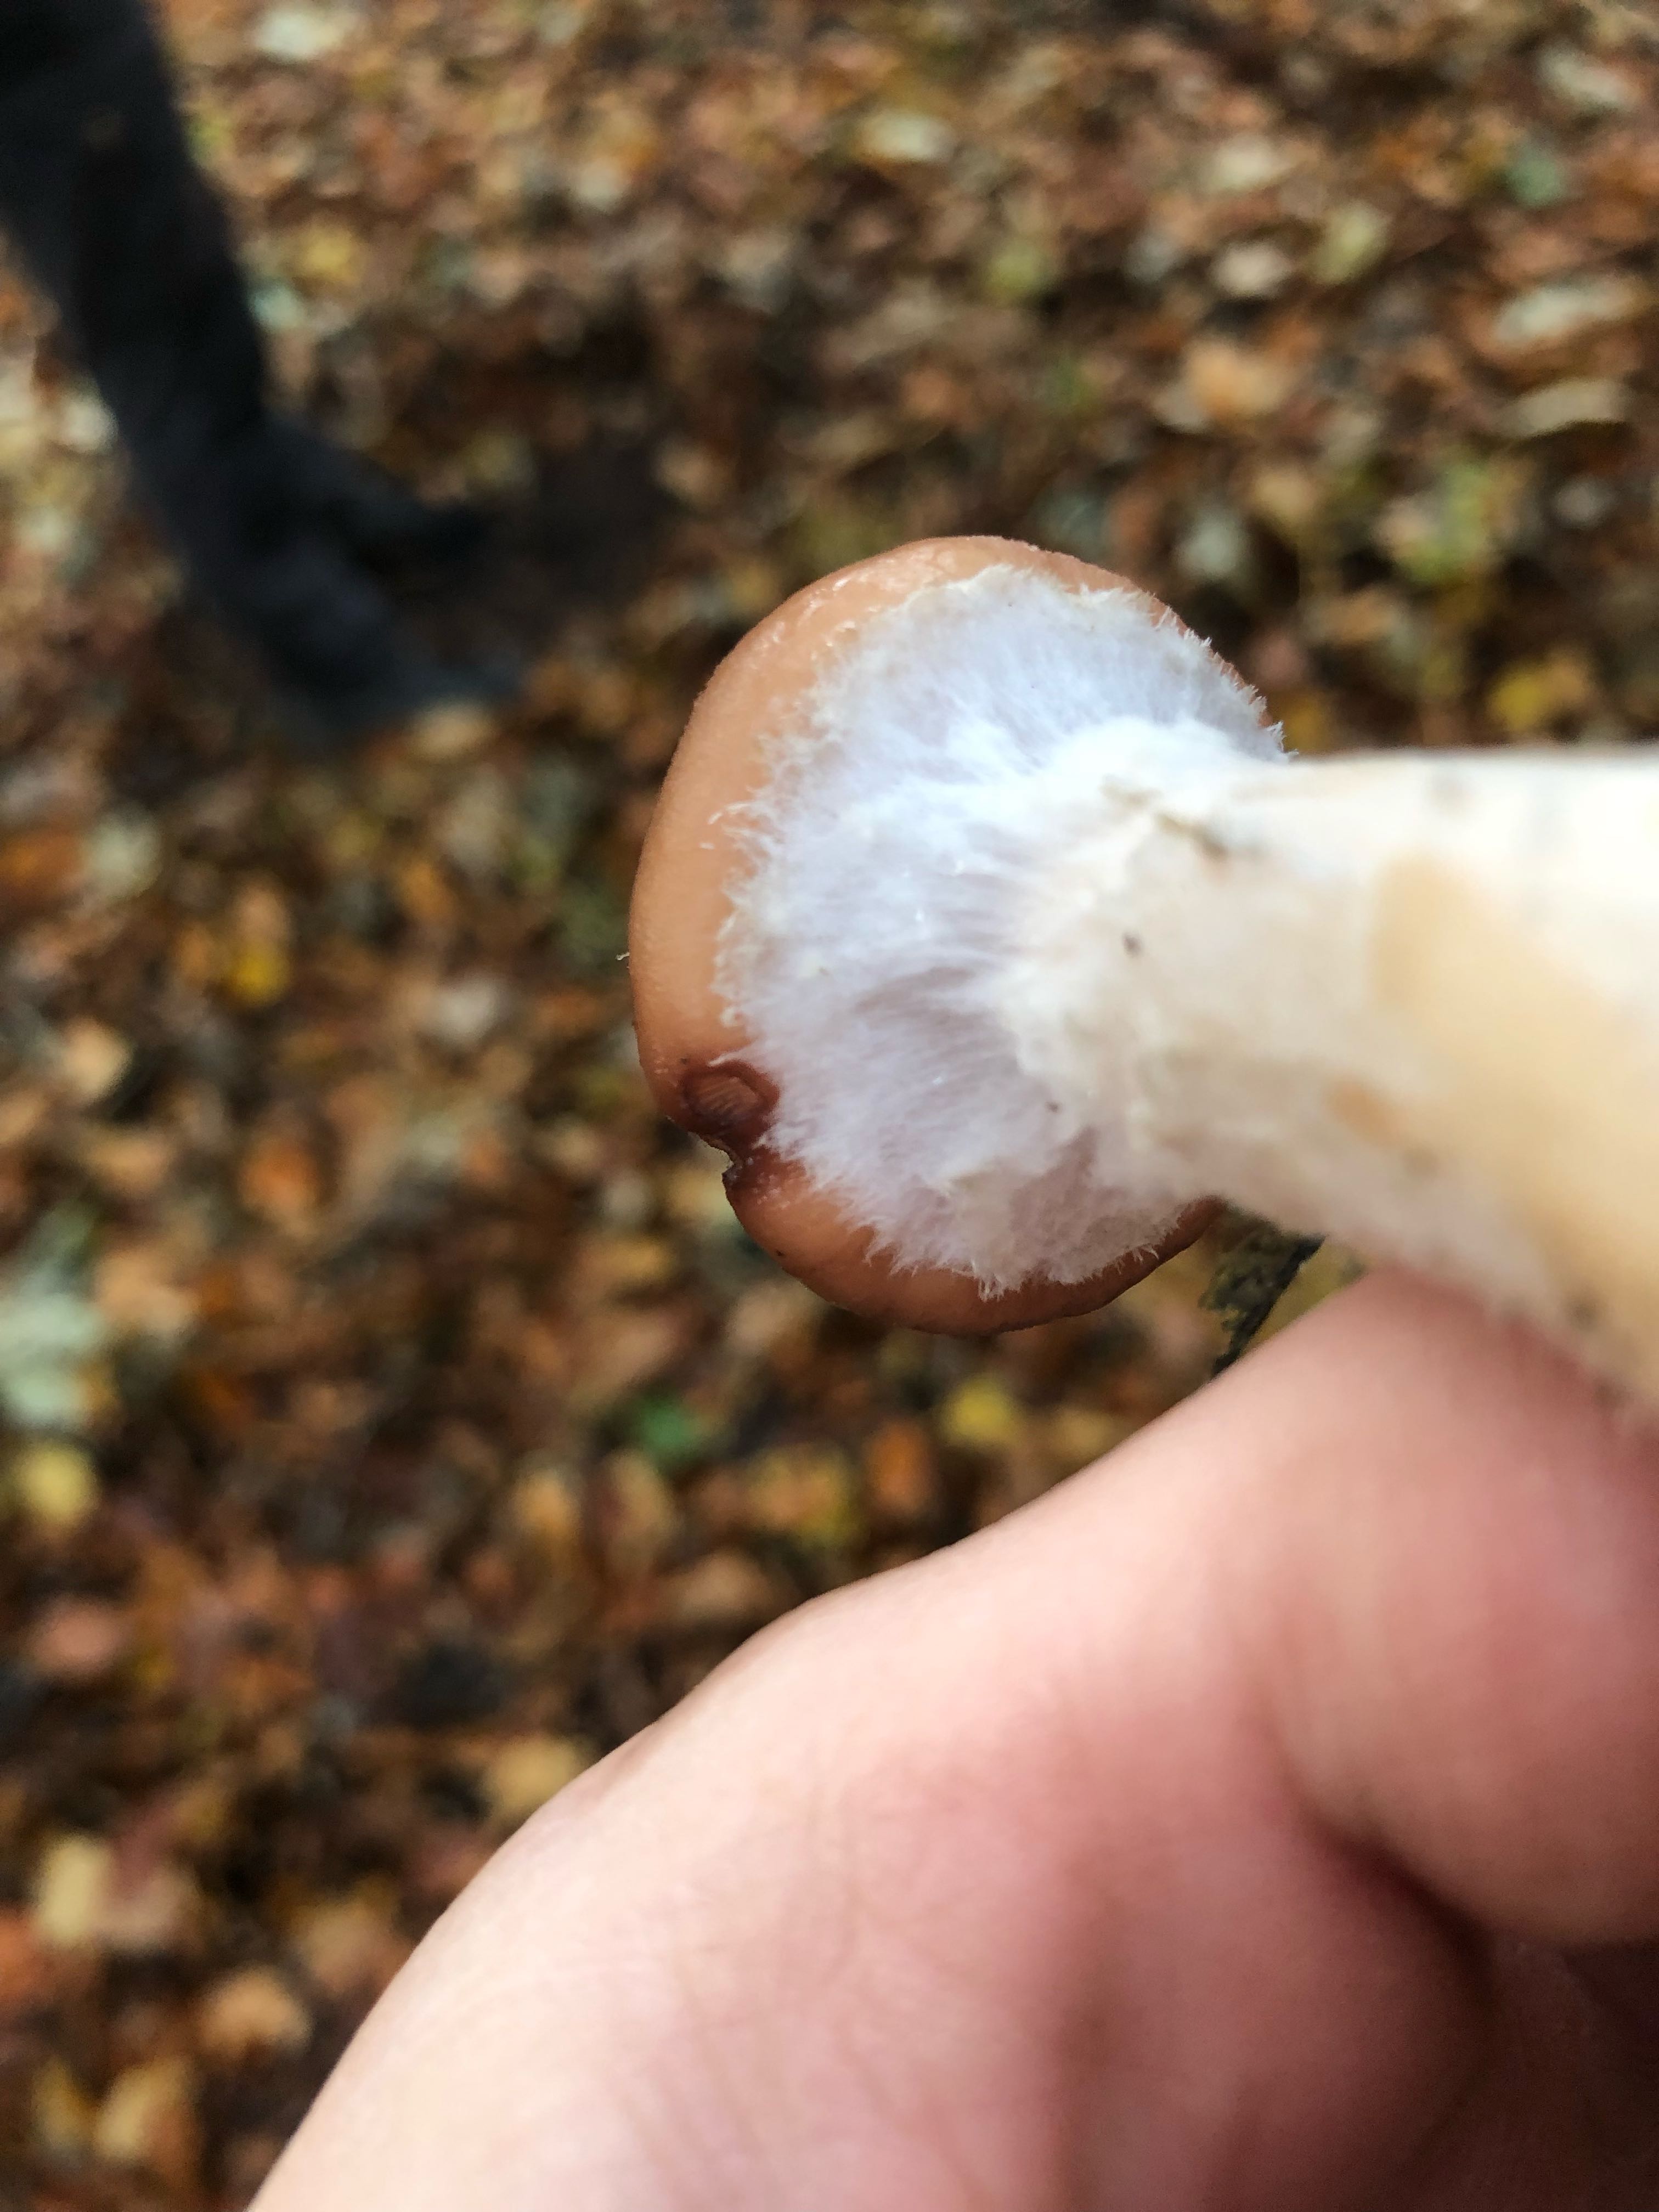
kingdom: Fungi
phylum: Basidiomycota
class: Agaricomycetes
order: Agaricales
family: Physalacriaceae
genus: Armillaria
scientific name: Armillaria lutea
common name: køllestokket honningsvamp
